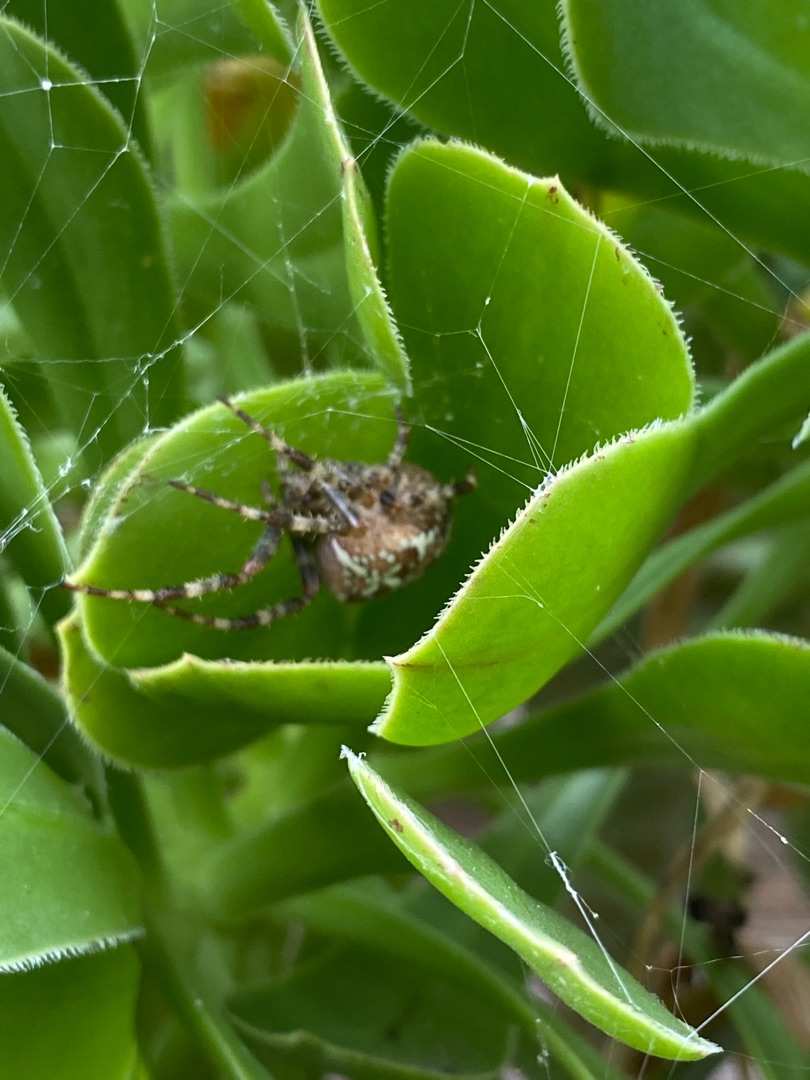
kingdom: Animalia
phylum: Arthropoda
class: Arachnida
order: Araneae
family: Araneidae
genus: Araneus
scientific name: Araneus diadematus
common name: Korsedderkop
